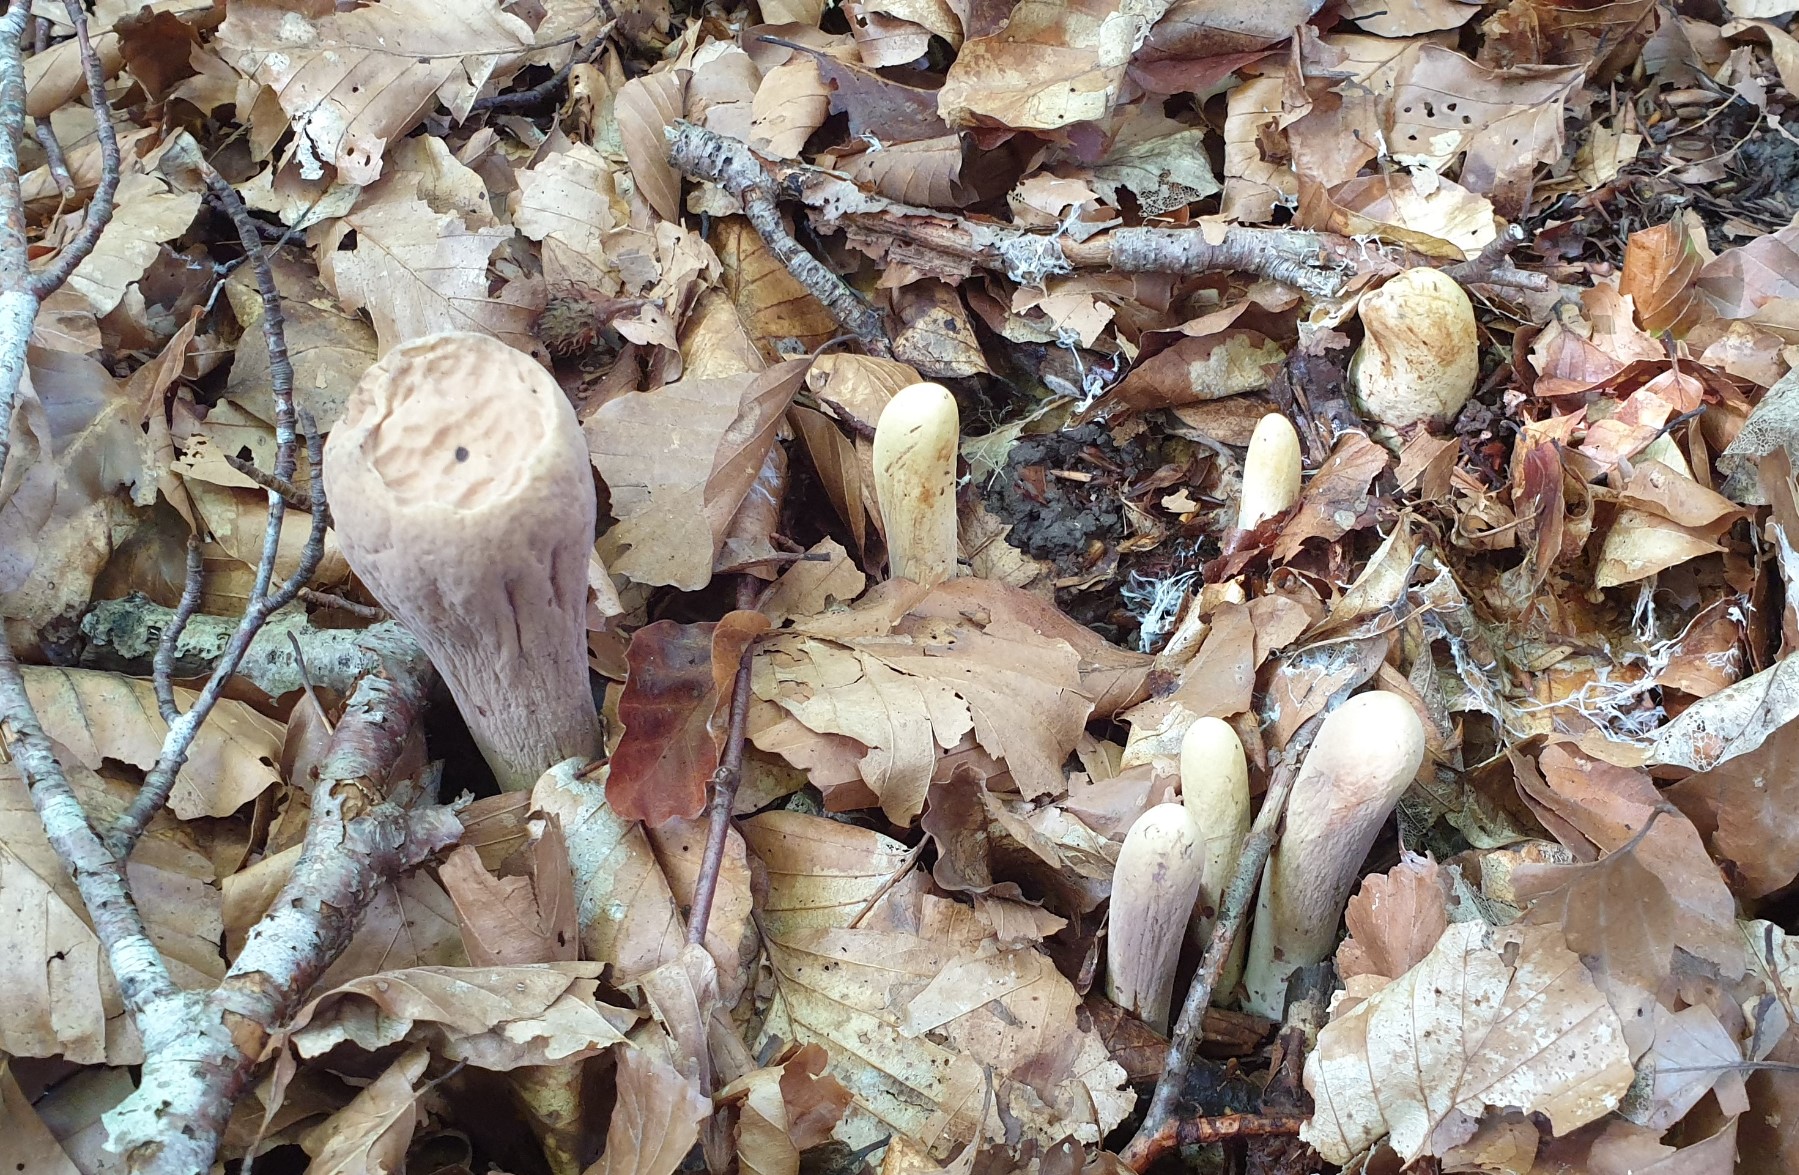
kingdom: Fungi
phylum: Basidiomycota
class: Agaricomycetes
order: Gomphales
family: Clavariadelphaceae
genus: Clavariadelphus
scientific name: Clavariadelphus pistillaris
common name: herkules-kæmpekølle
